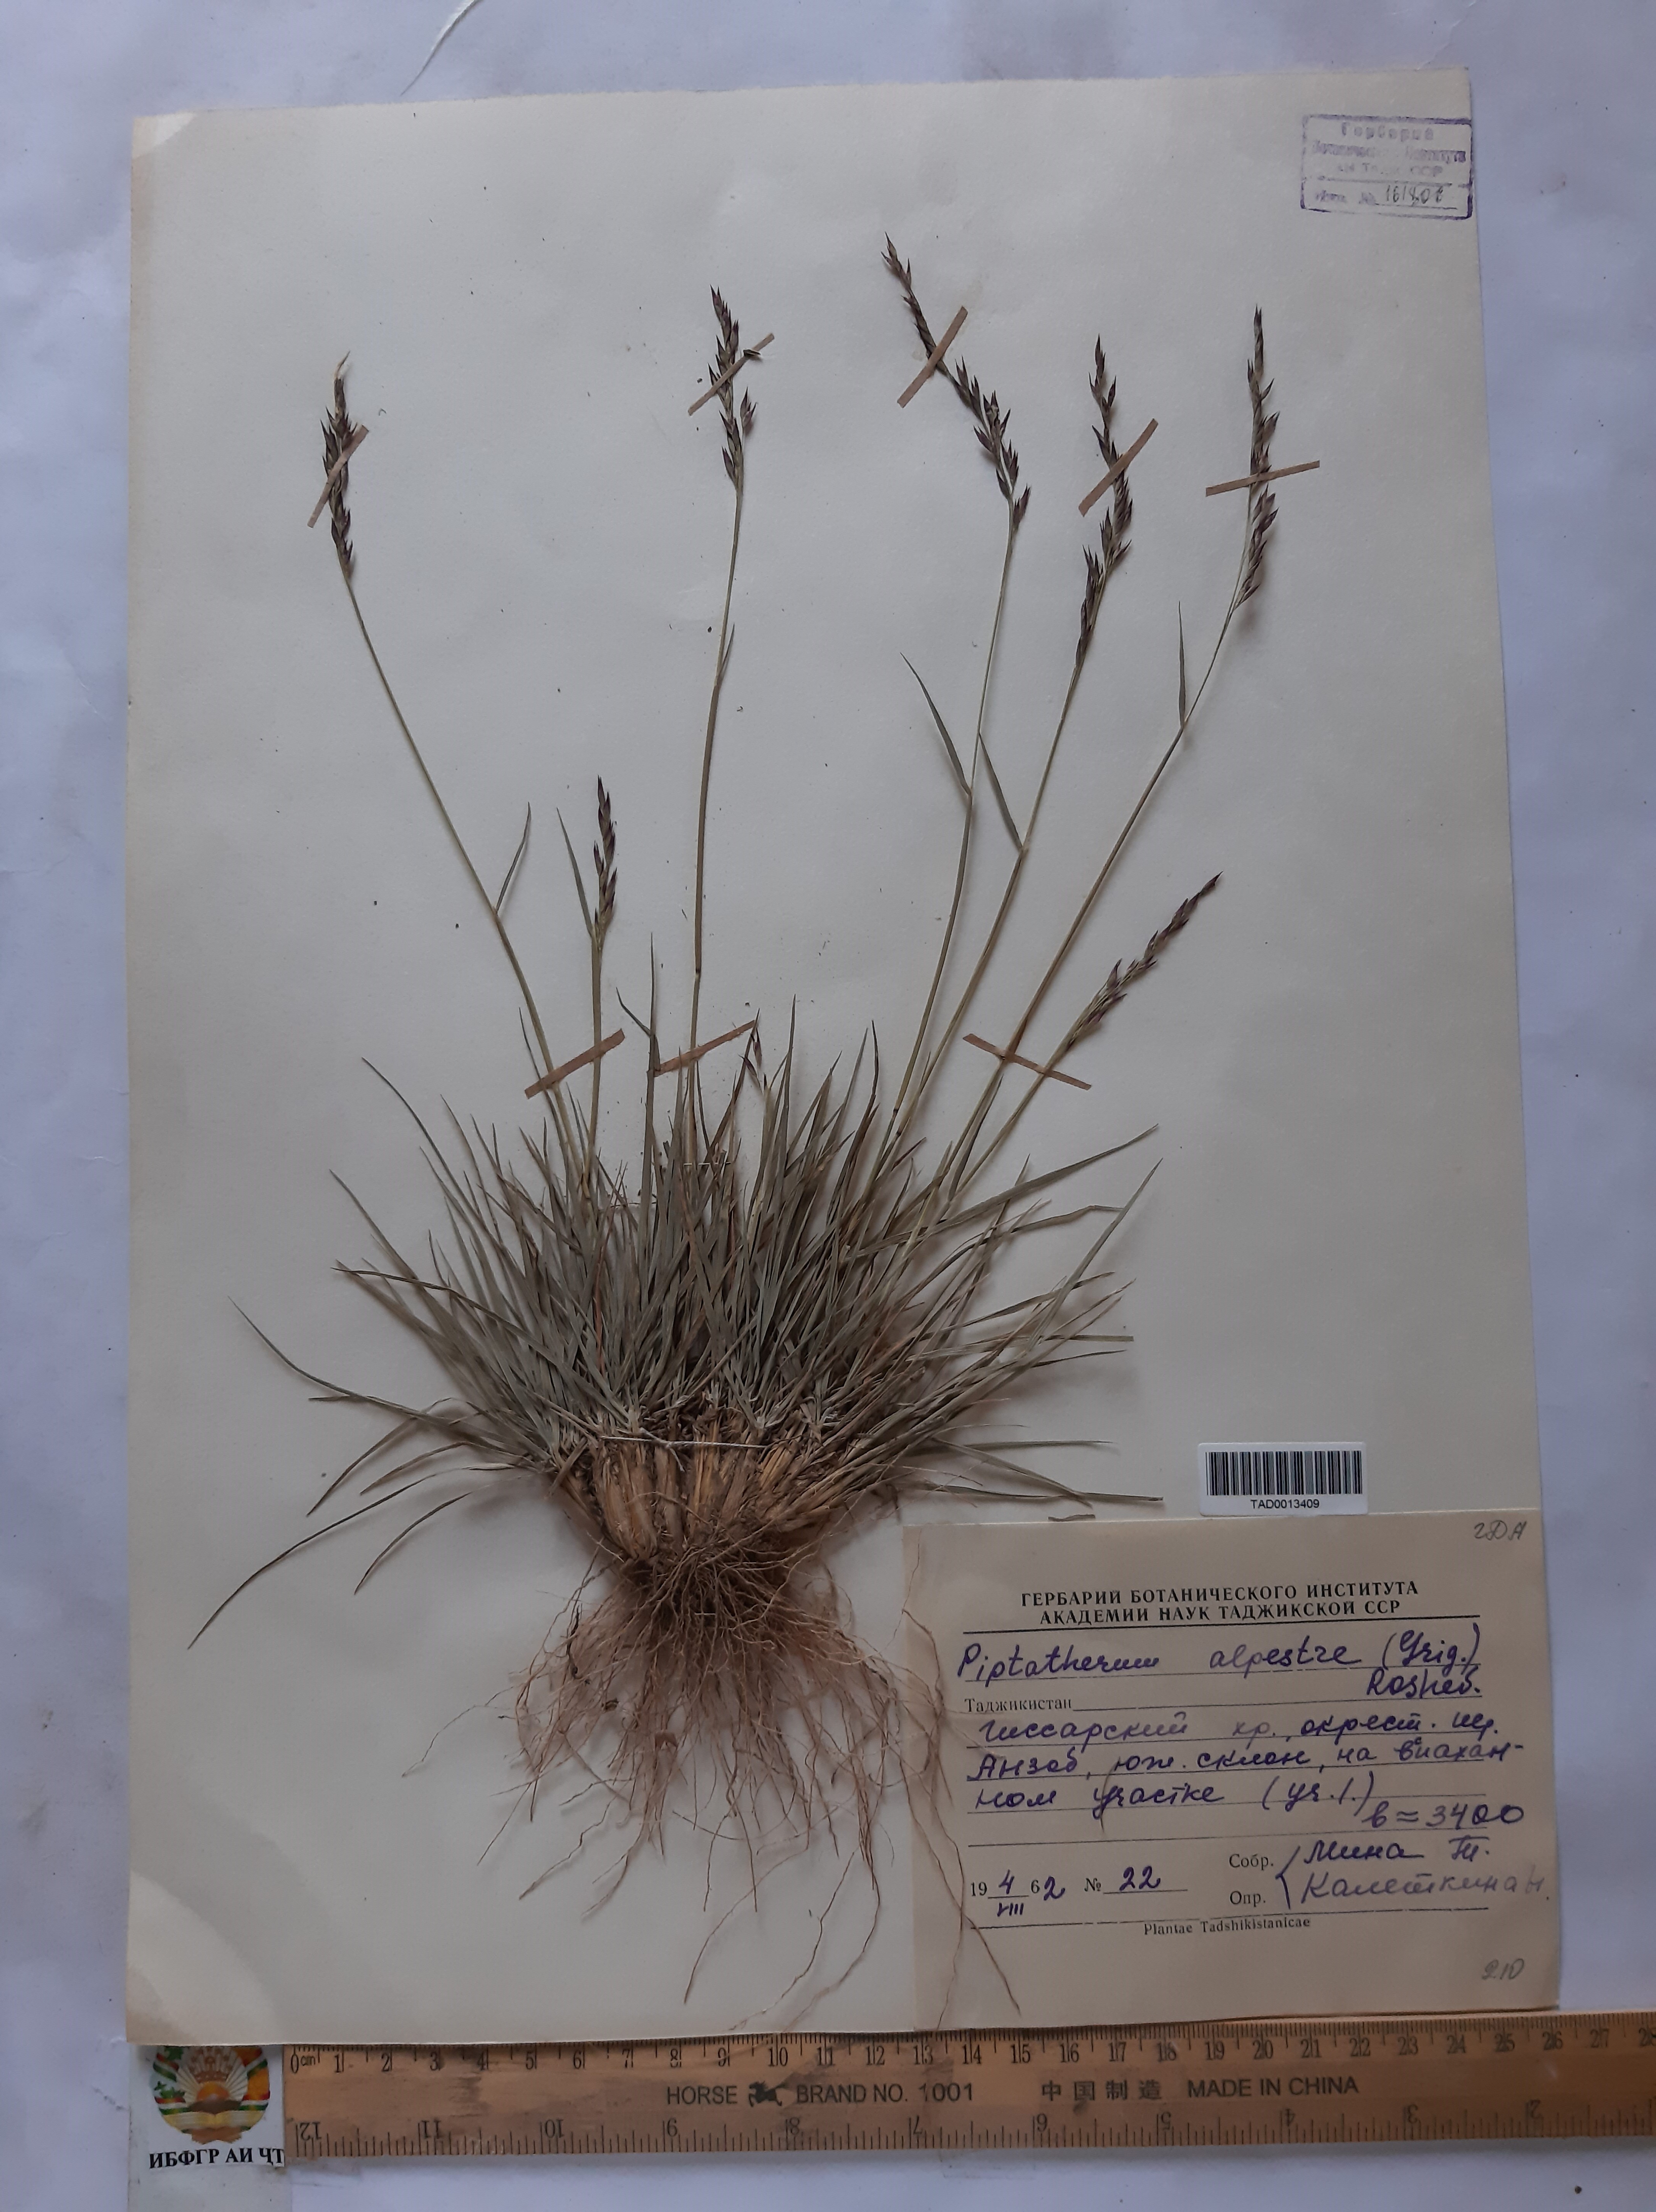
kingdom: Plantae
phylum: Tracheophyta
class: Liliopsida
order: Poales
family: Poaceae
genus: Stipa
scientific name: Stipa caucasica
